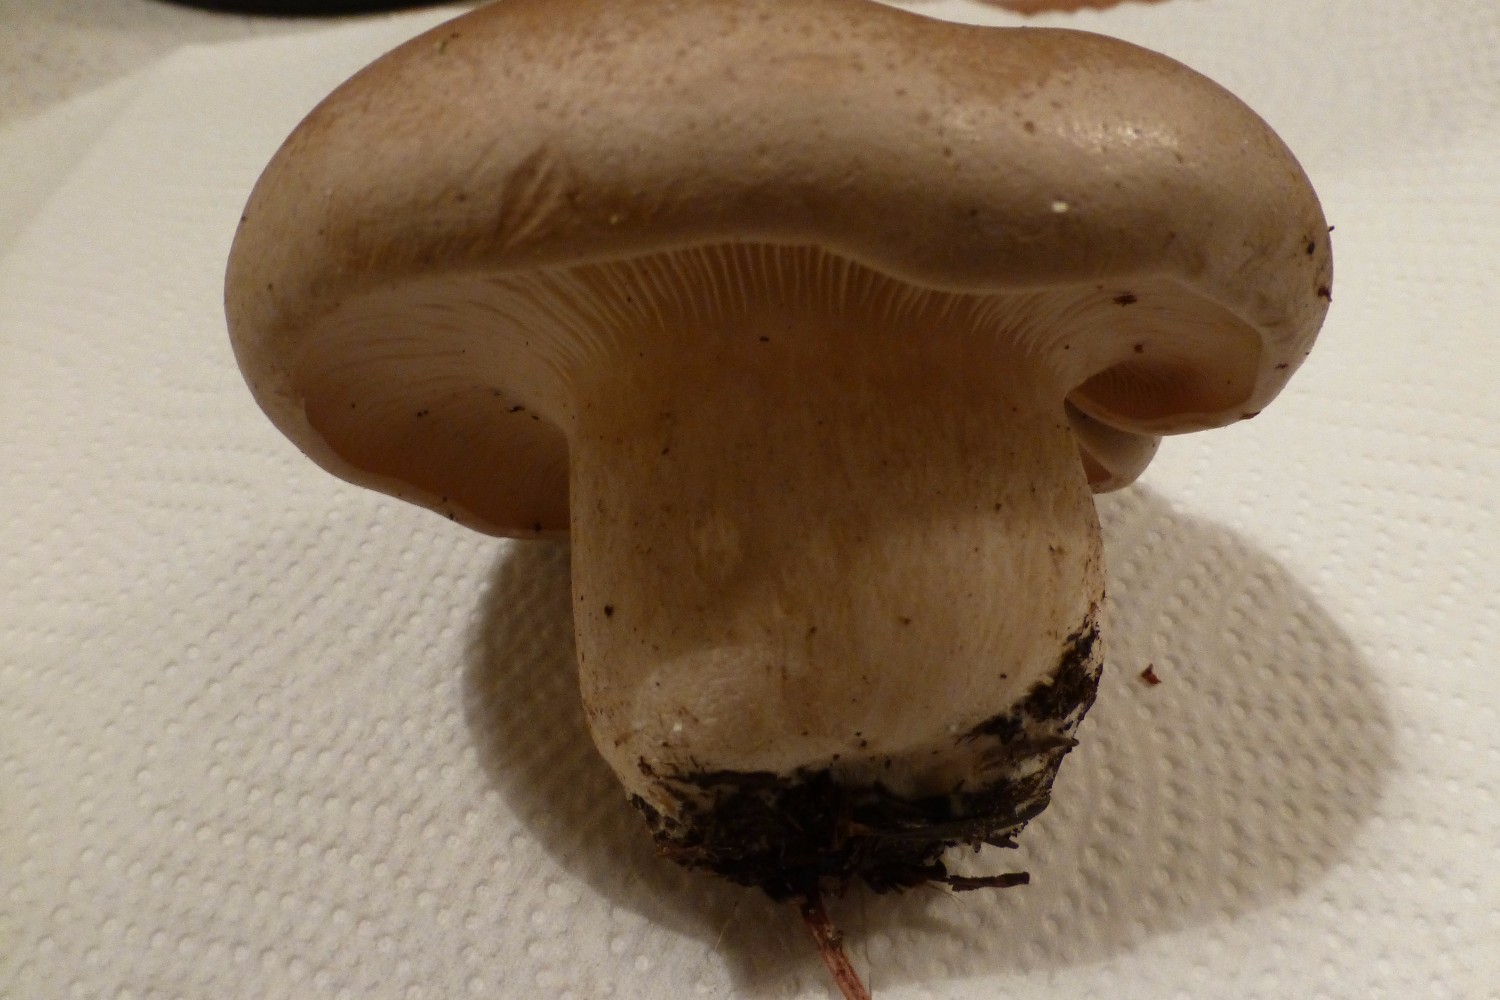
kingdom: Fungi
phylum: Basidiomycota
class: Agaricomycetes
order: Agaricales
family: Tricholomataceae
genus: Clitocybe
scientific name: Clitocybe nebularis
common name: tåge-tragthat
